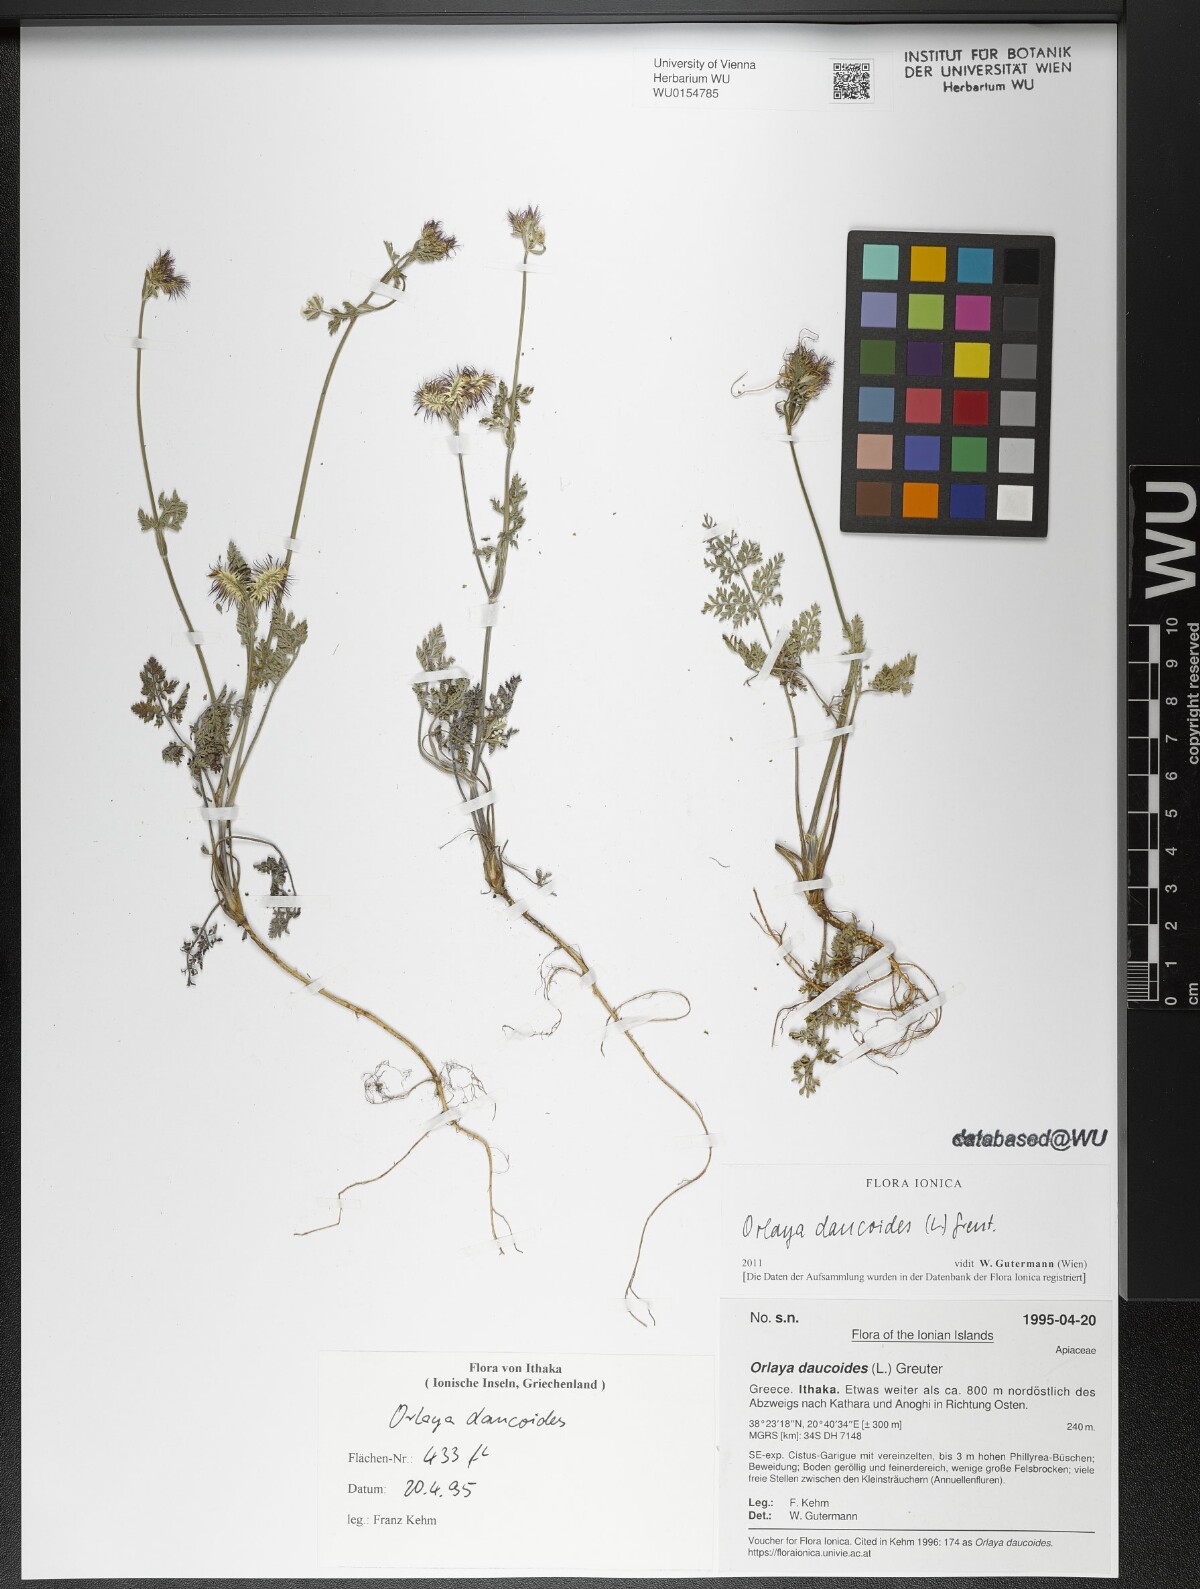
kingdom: Plantae
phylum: Tracheophyta
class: Magnoliopsida
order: Apiales
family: Apiaceae
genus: Orlaya
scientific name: Orlaya daucoides
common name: Flat-fruit orlaya
